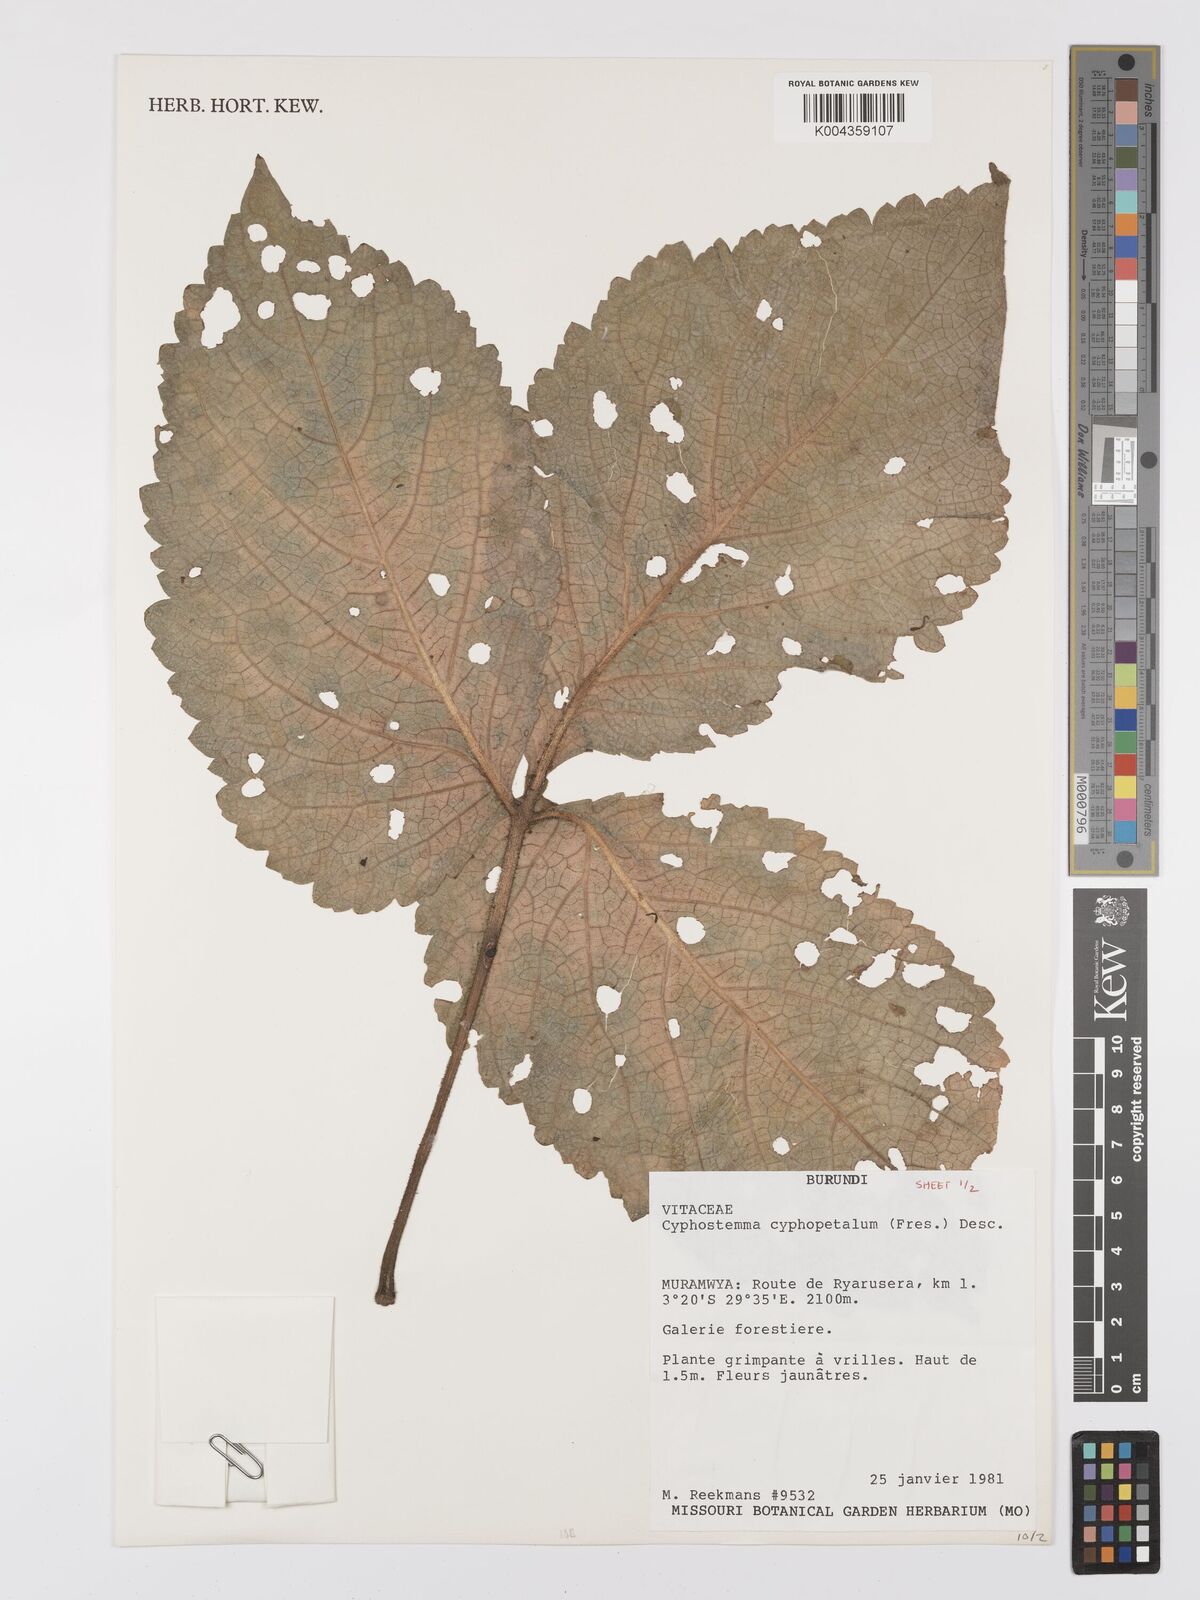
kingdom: Plantae
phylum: Tracheophyta
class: Magnoliopsida
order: Vitales
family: Vitaceae
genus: Cyphostemma
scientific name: Cyphostemma cyphopetalum
